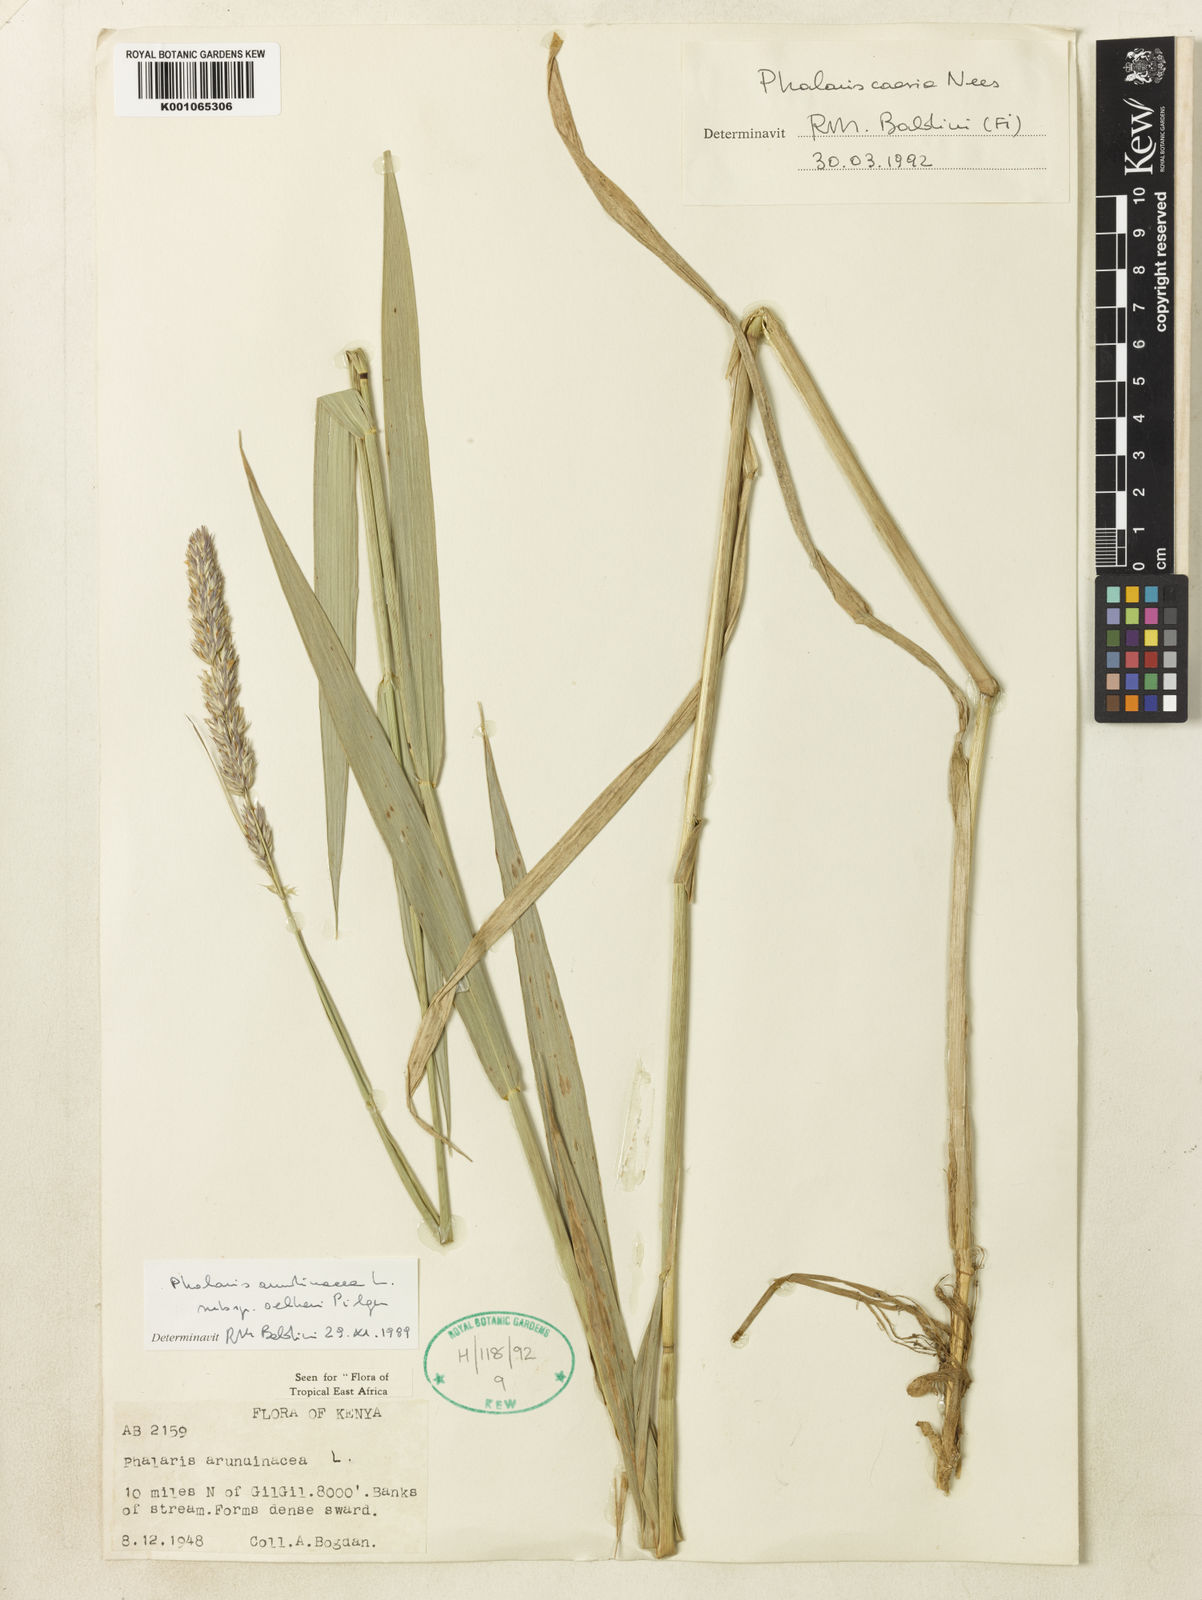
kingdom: Plantae
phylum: Tracheophyta
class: Liliopsida
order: Poales
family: Poaceae
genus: Phalaris
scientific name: Phalaris arundinacea
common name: Reed canary-grass
